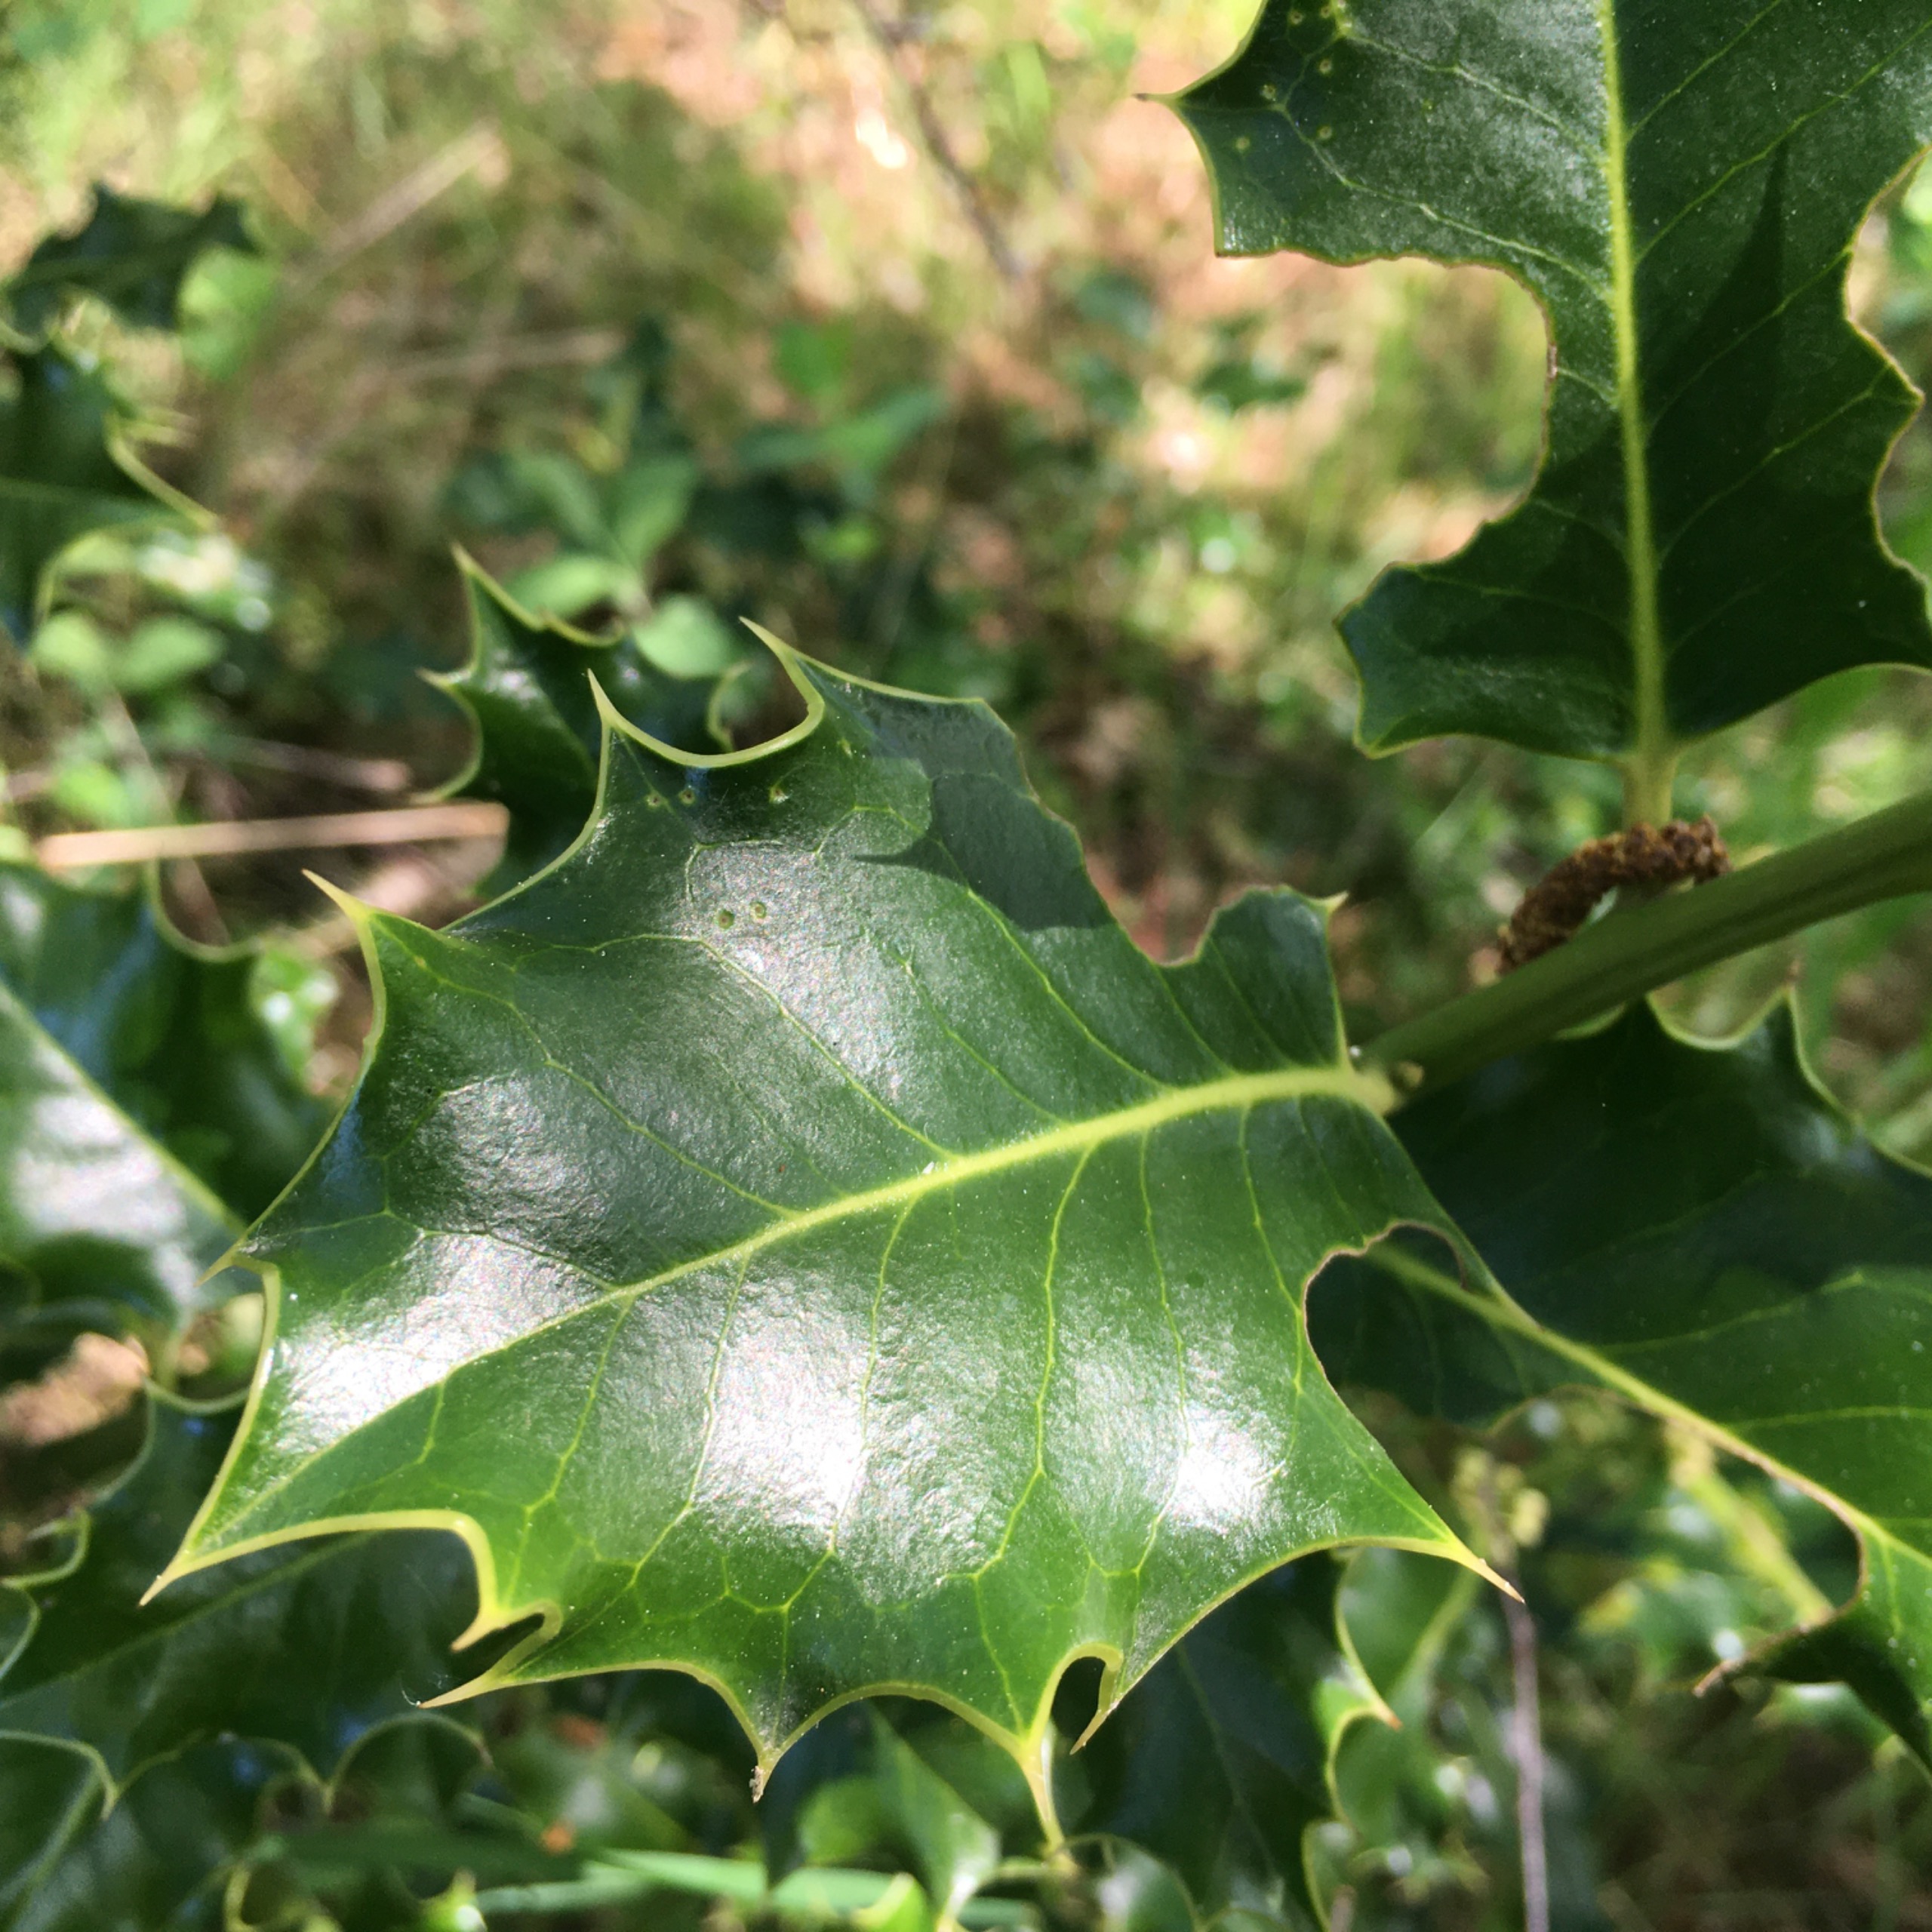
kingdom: Plantae
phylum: Tracheophyta
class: Magnoliopsida
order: Aquifoliales
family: Aquifoliaceae
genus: Ilex
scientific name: Ilex aquifolium
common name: Kristtorn
